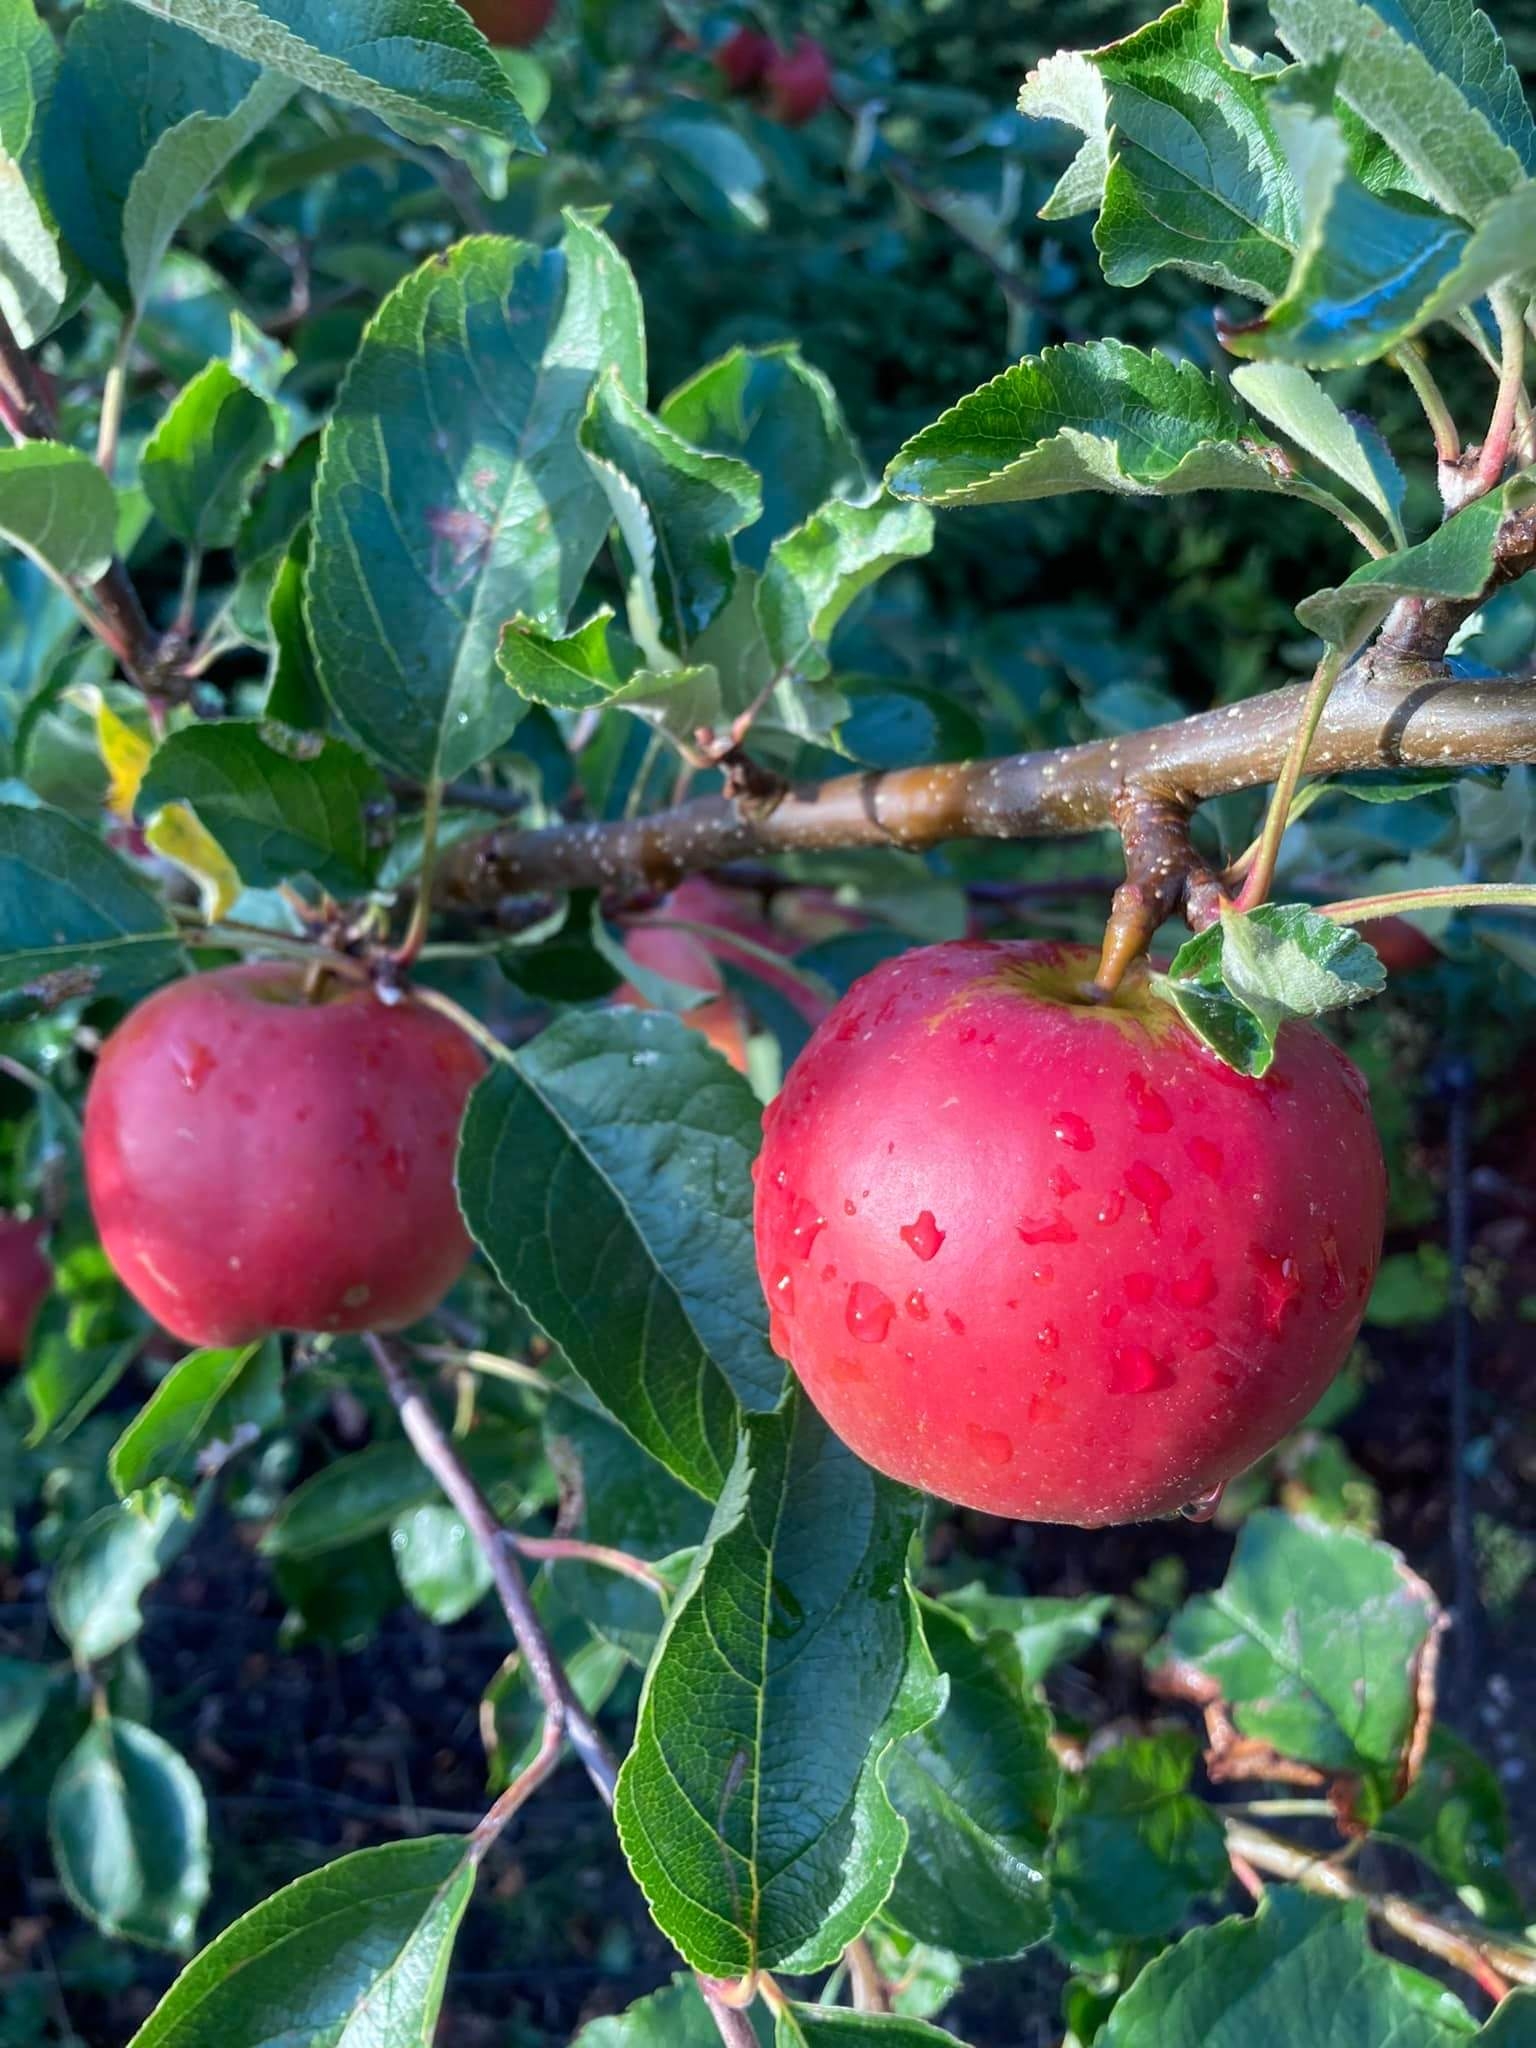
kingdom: Plantae
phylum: Tracheophyta
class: Magnoliopsida
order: Rosales
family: Rosaceae
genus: Malus
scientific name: Malus domestica
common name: Sød-æble
